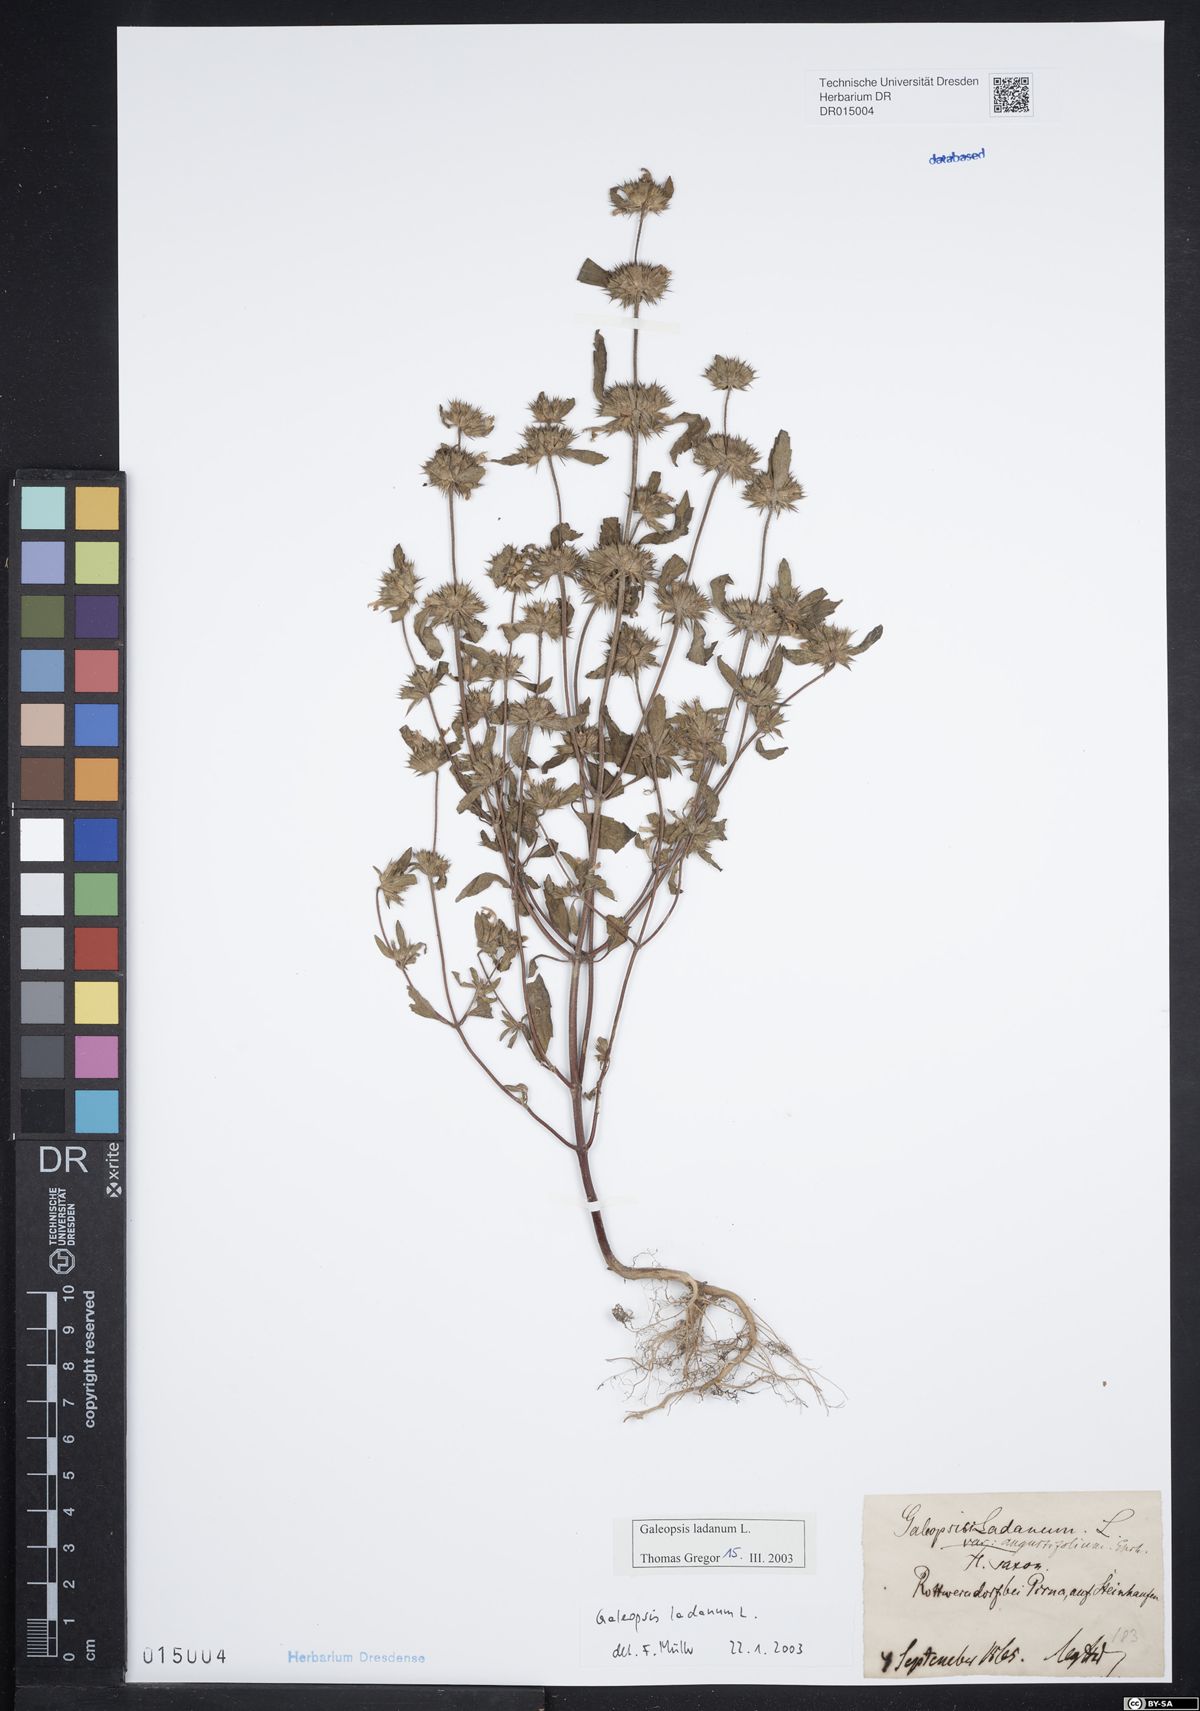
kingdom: Plantae
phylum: Tracheophyta
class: Magnoliopsida
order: Lamiales
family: Lamiaceae
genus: Galeopsis
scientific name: Galeopsis ladanum
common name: Broad-leaved hemp-nettle
